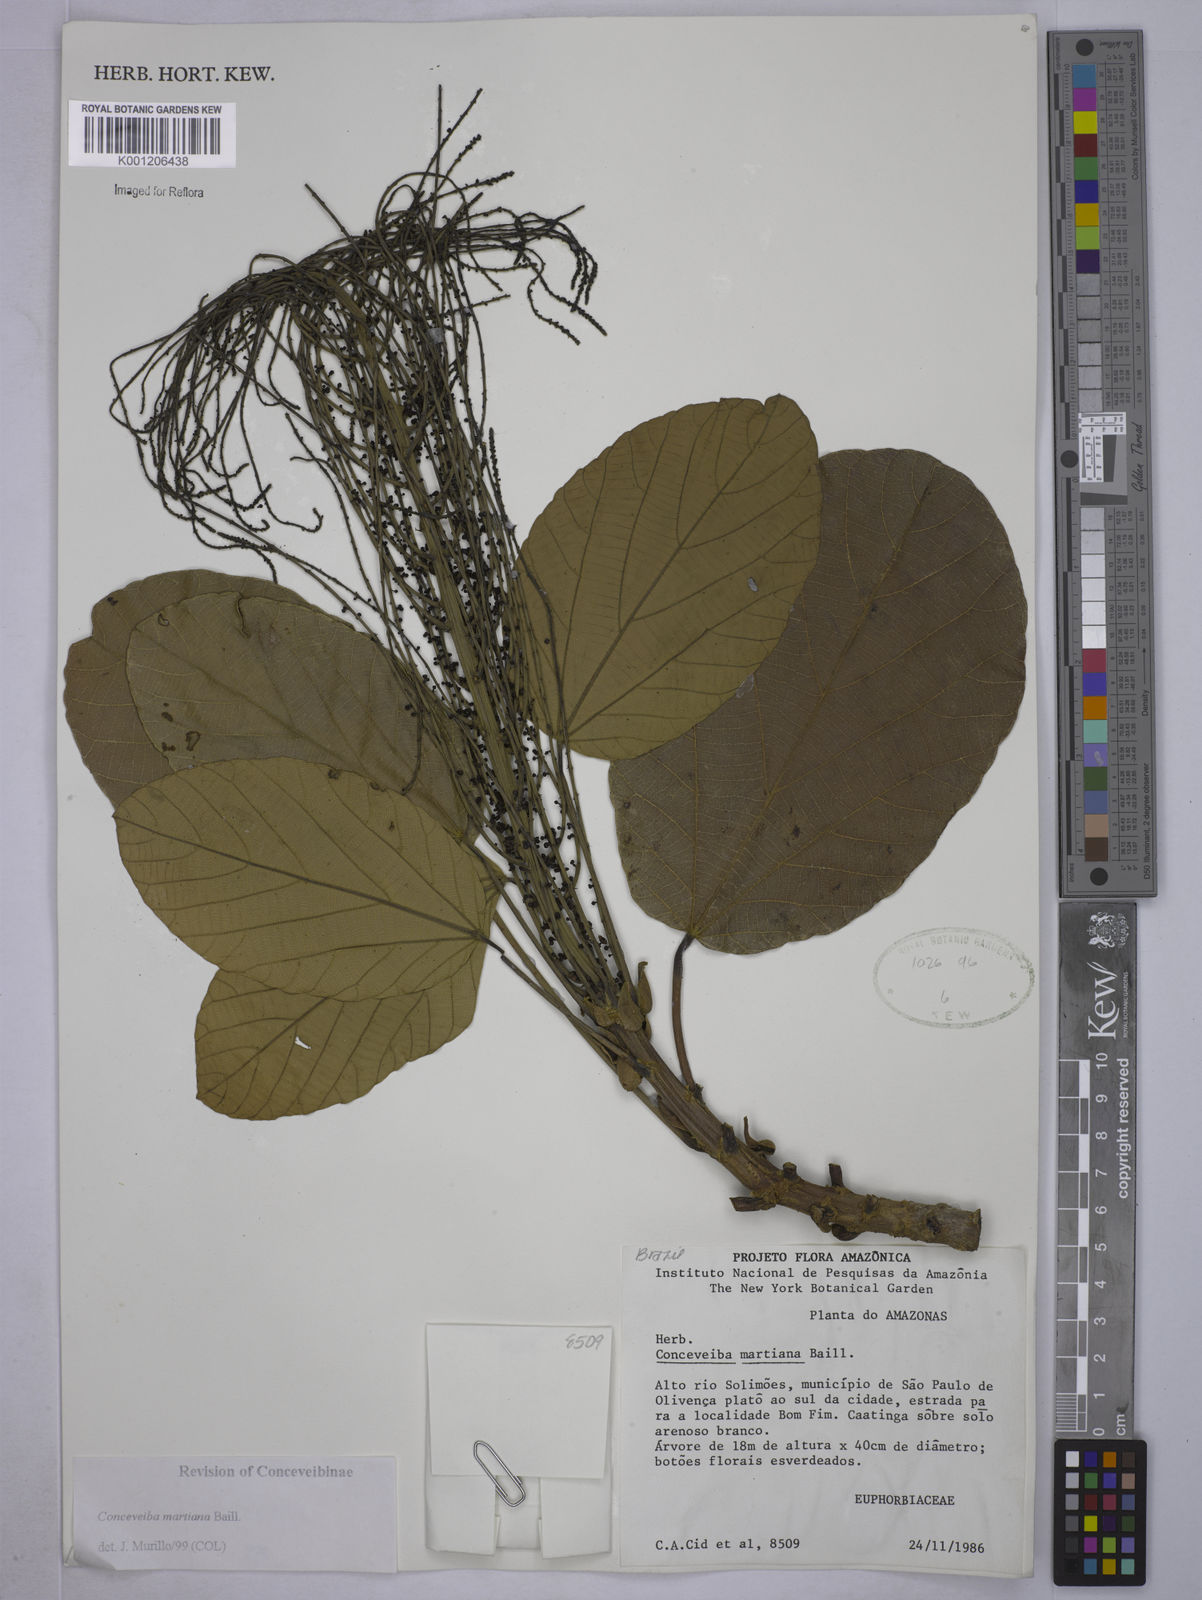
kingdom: Plantae
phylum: Tracheophyta
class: Magnoliopsida
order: Malpighiales
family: Euphorbiaceae
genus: Conceveiba
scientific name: Conceveiba martiana
